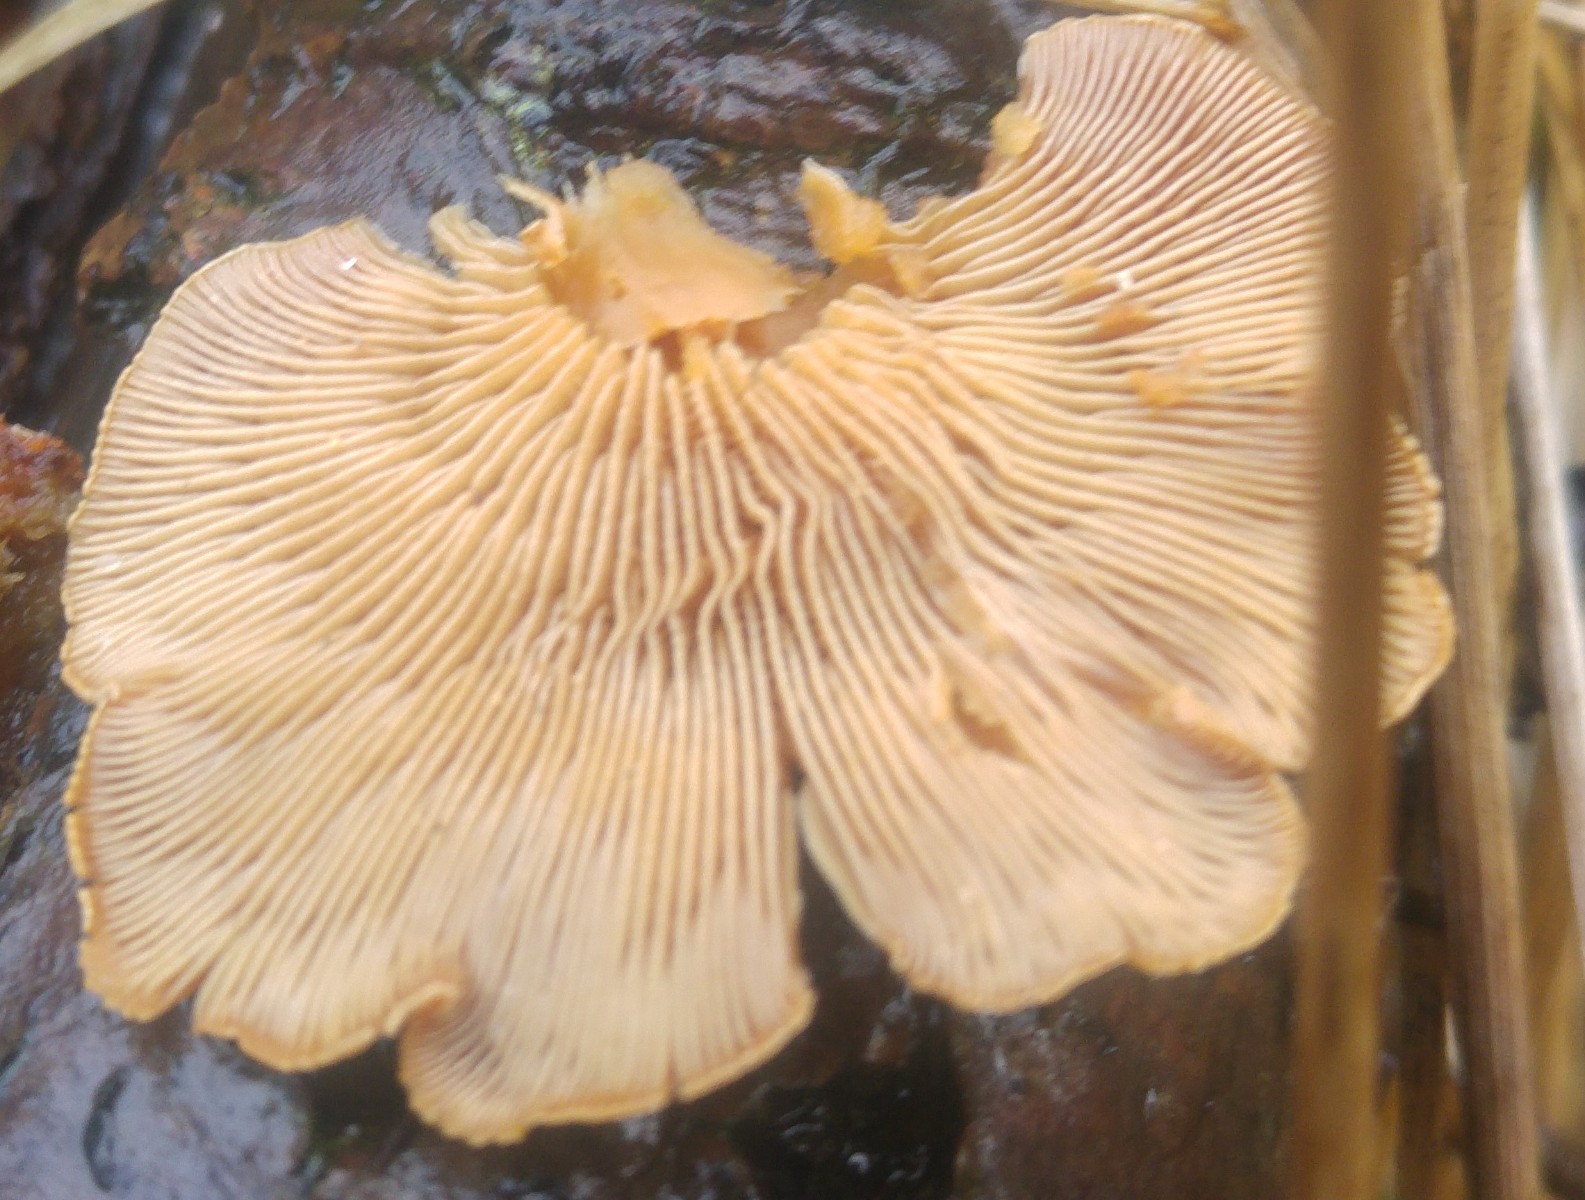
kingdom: Fungi
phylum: Basidiomycota
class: Agaricomycetes
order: Agaricales
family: Mycenaceae
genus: Panellus
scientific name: Panellus stipticus
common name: kliddet epaulethat
